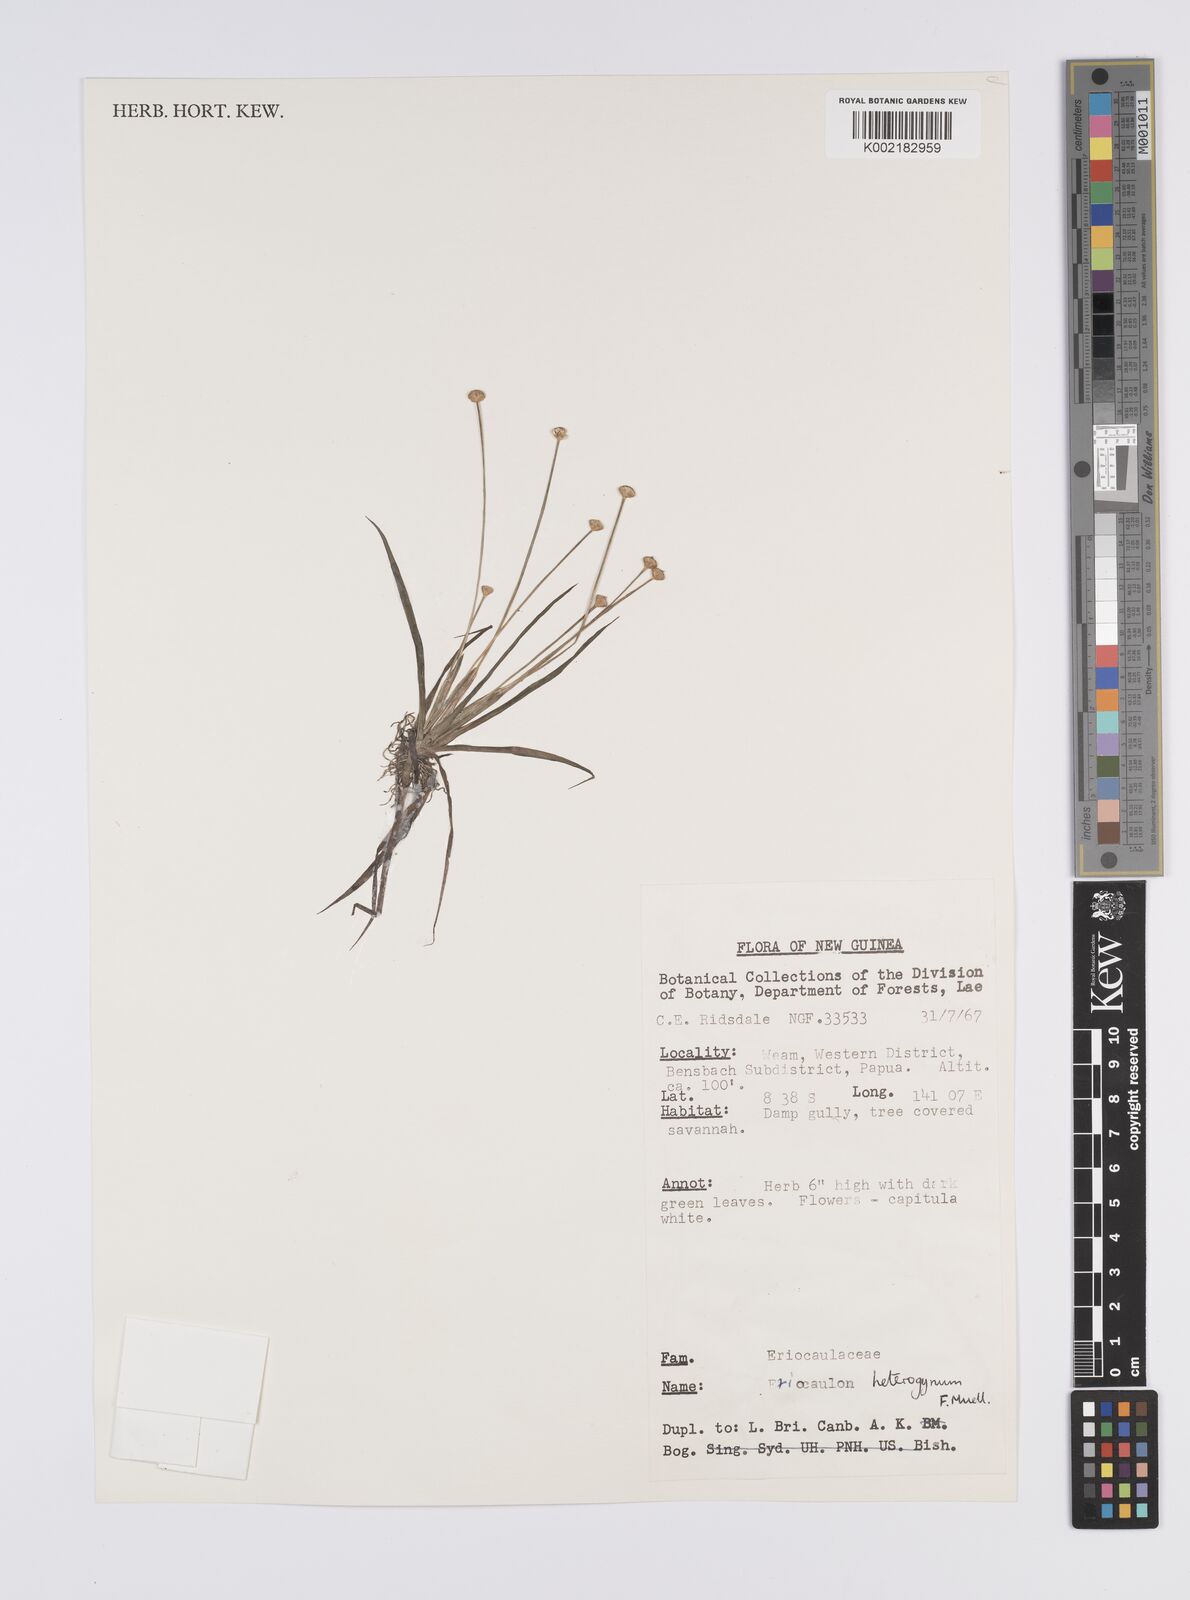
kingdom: Plantae
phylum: Tracheophyta
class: Liliopsida
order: Poales
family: Eriocaulaceae
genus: Eriocaulon
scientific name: Eriocaulon depressum
